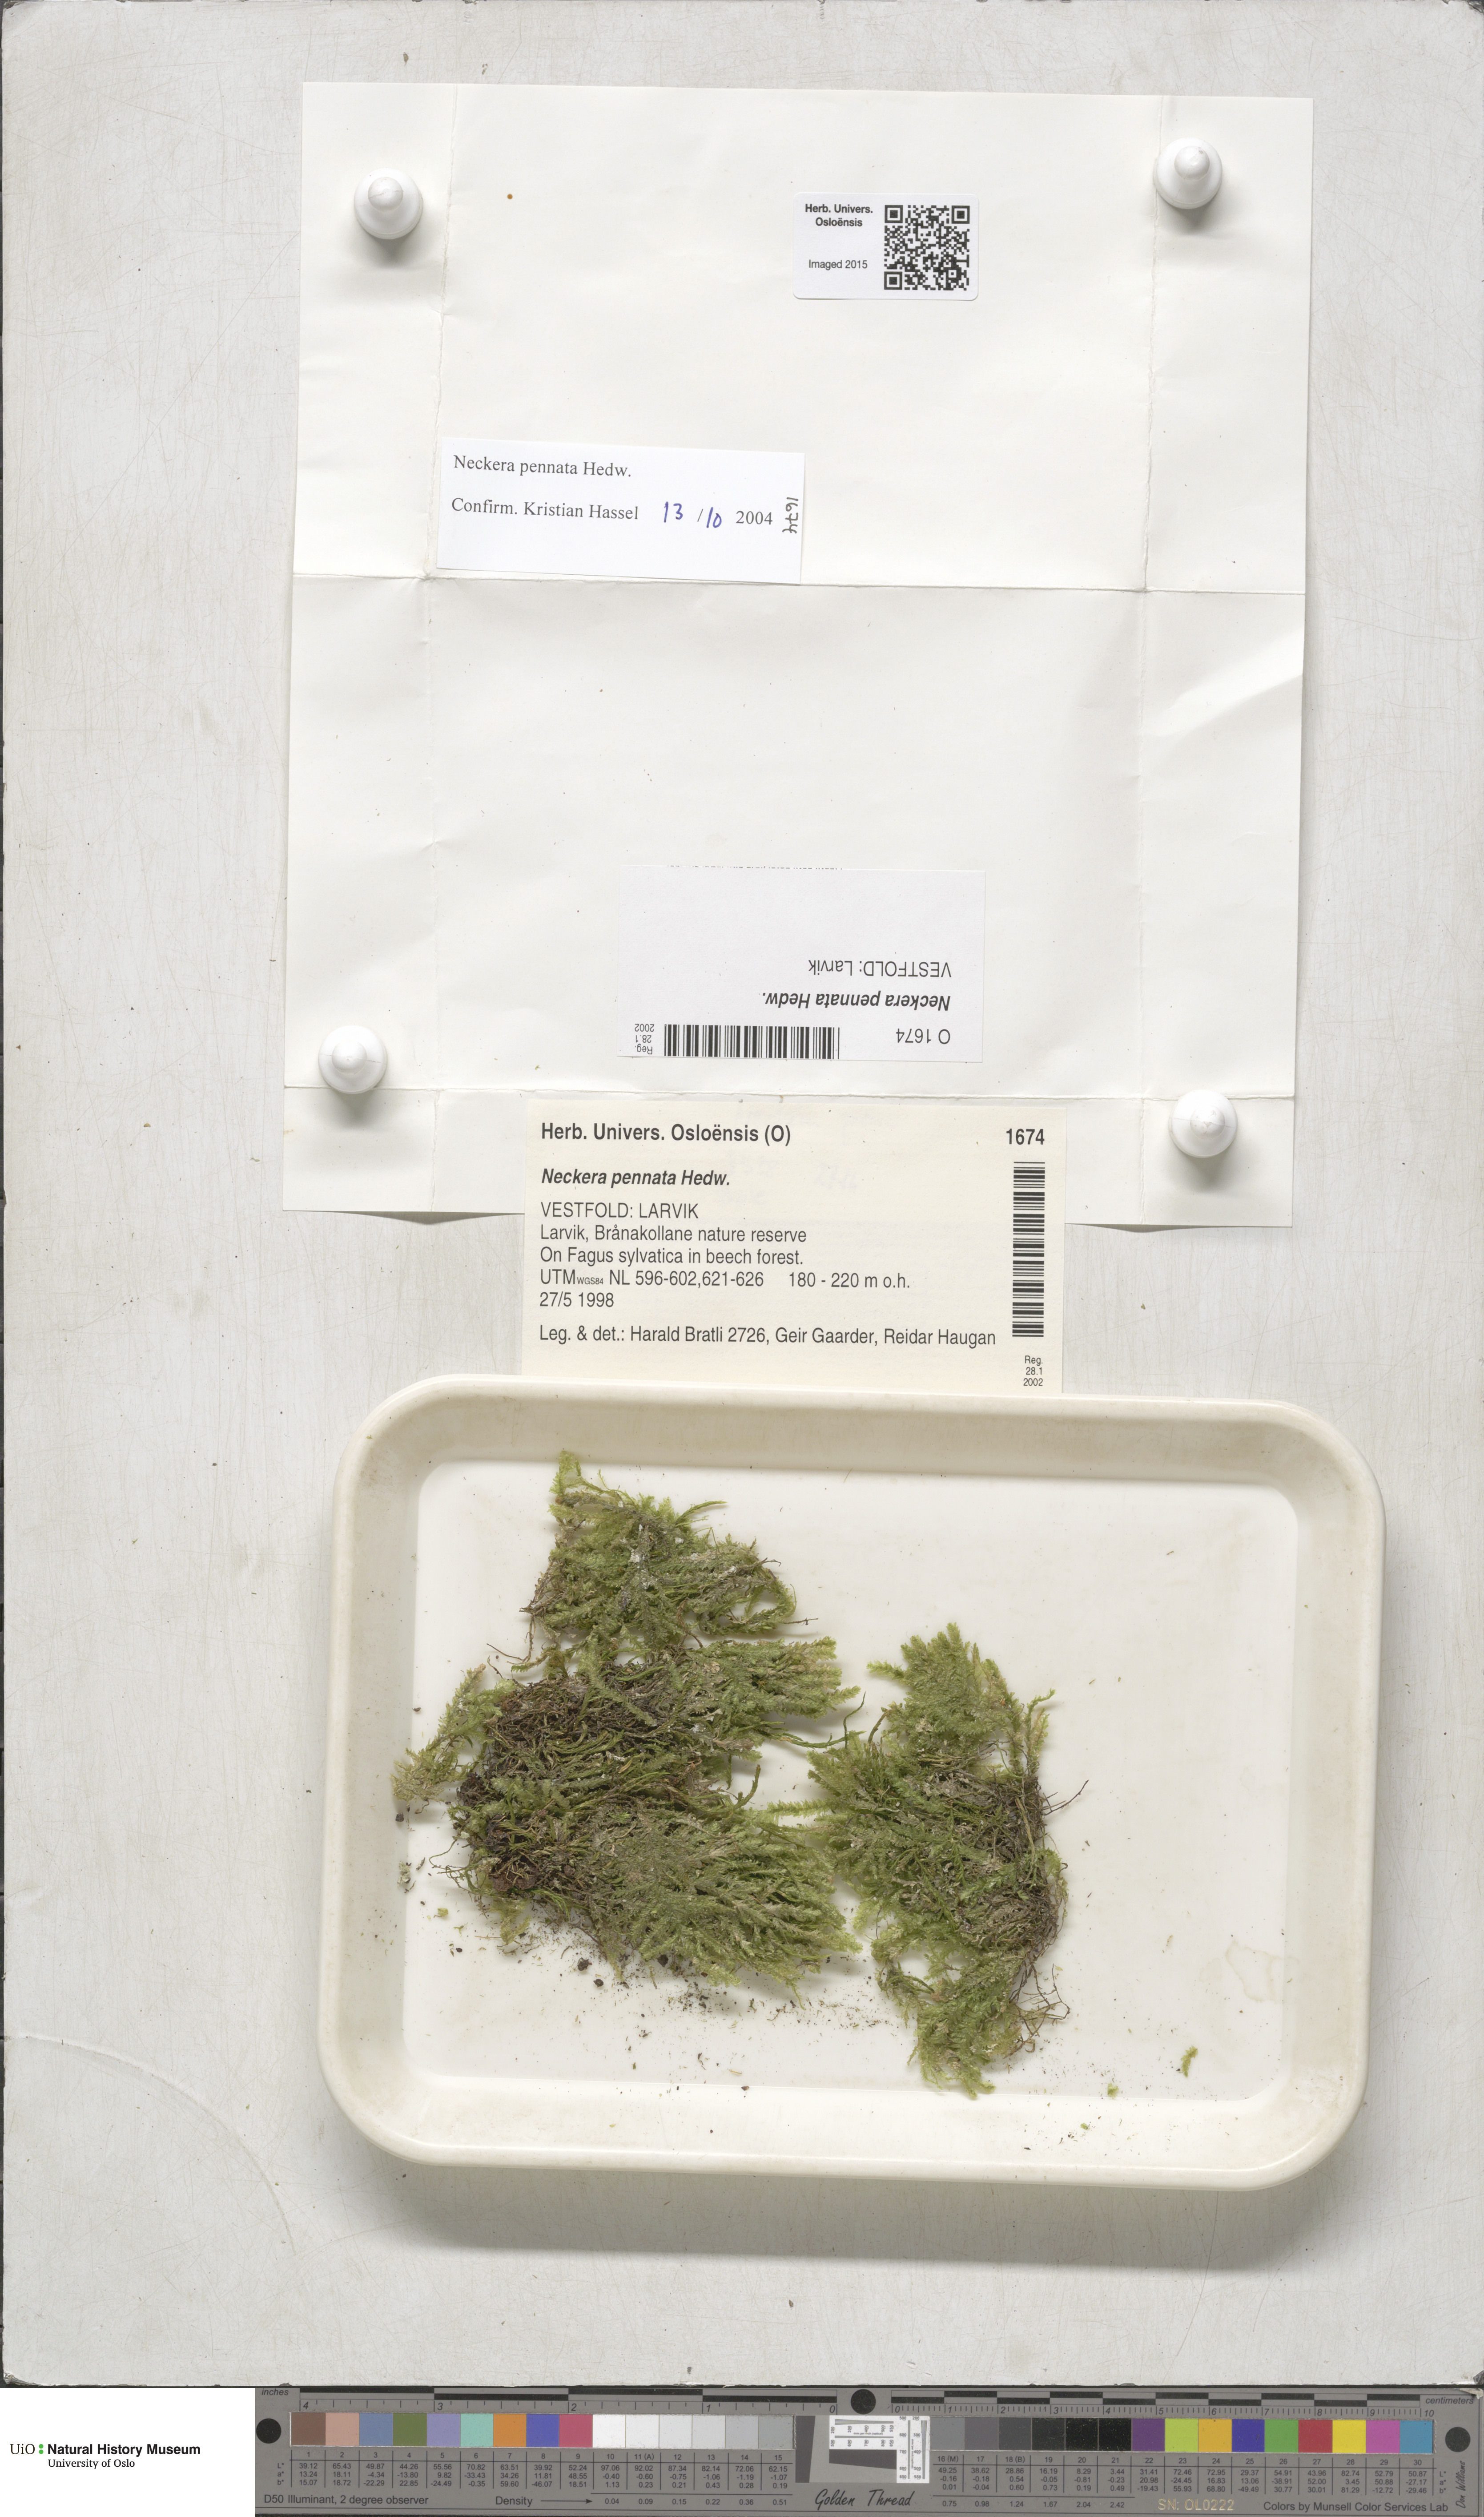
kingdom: Plantae
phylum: Bryophyta
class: Bryopsida
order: Hypnales
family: Neckeraceae
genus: Neckera
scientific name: Neckera pennata
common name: Feathery neckera
